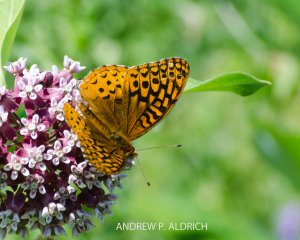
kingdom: Animalia
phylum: Arthropoda
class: Insecta
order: Lepidoptera
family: Nymphalidae
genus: Speyeria
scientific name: Speyeria cybele
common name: Great Spangled Fritillary
